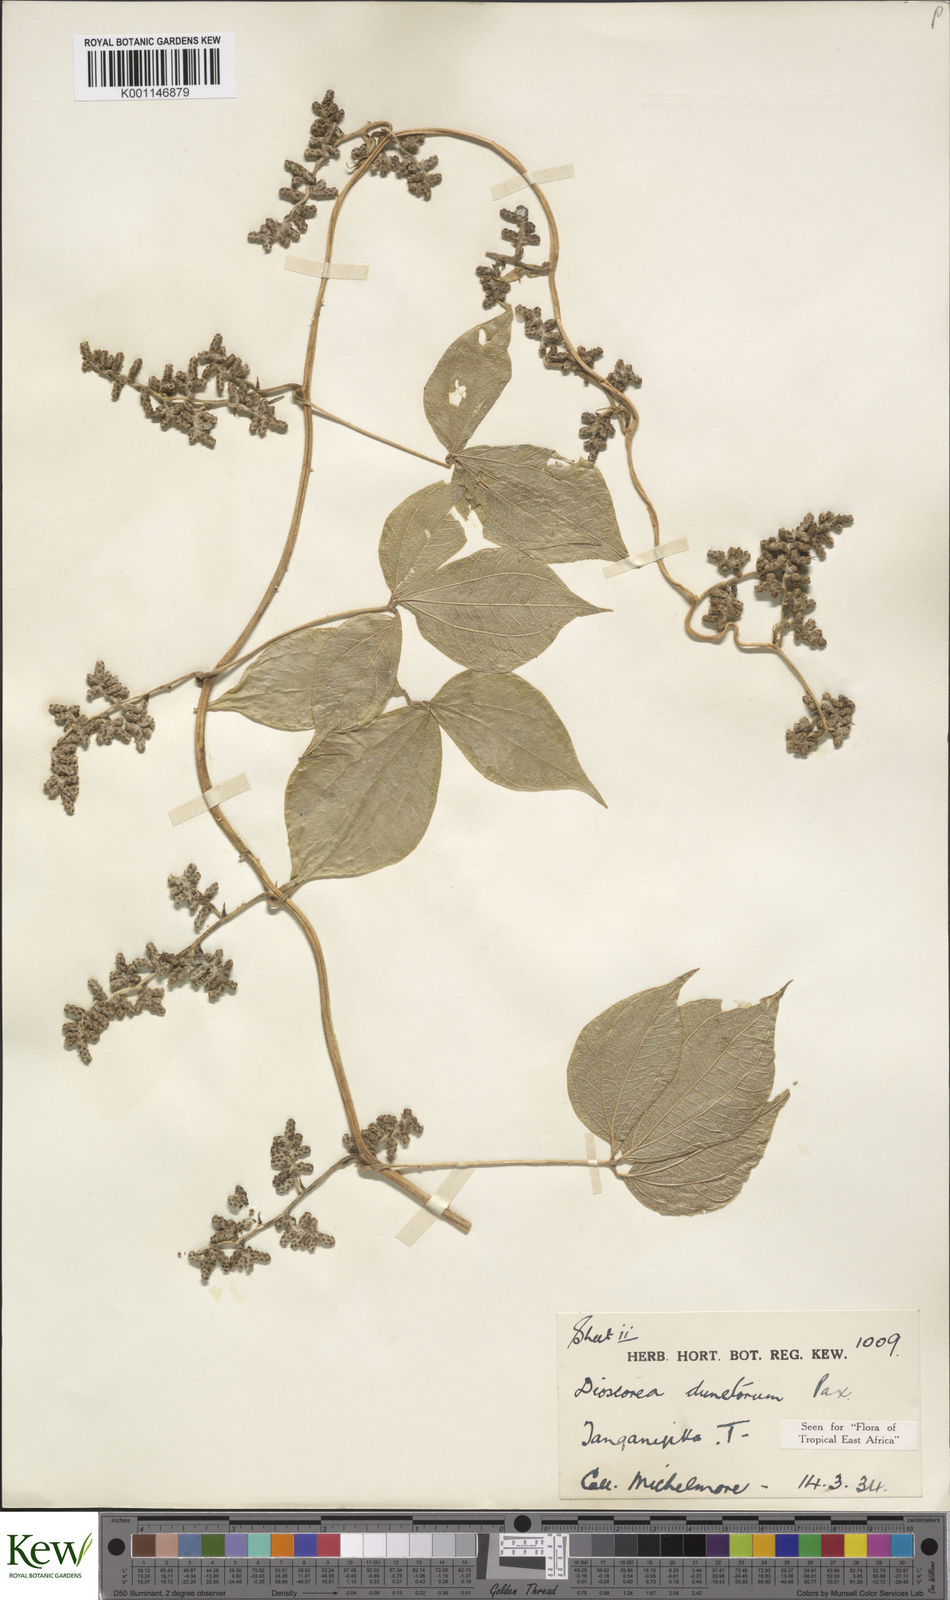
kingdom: Plantae
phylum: Tracheophyta
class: Liliopsida
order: Dioscoreales
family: Dioscoreaceae
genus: Dioscorea
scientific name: Dioscorea dumetorum
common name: African bitter yam
